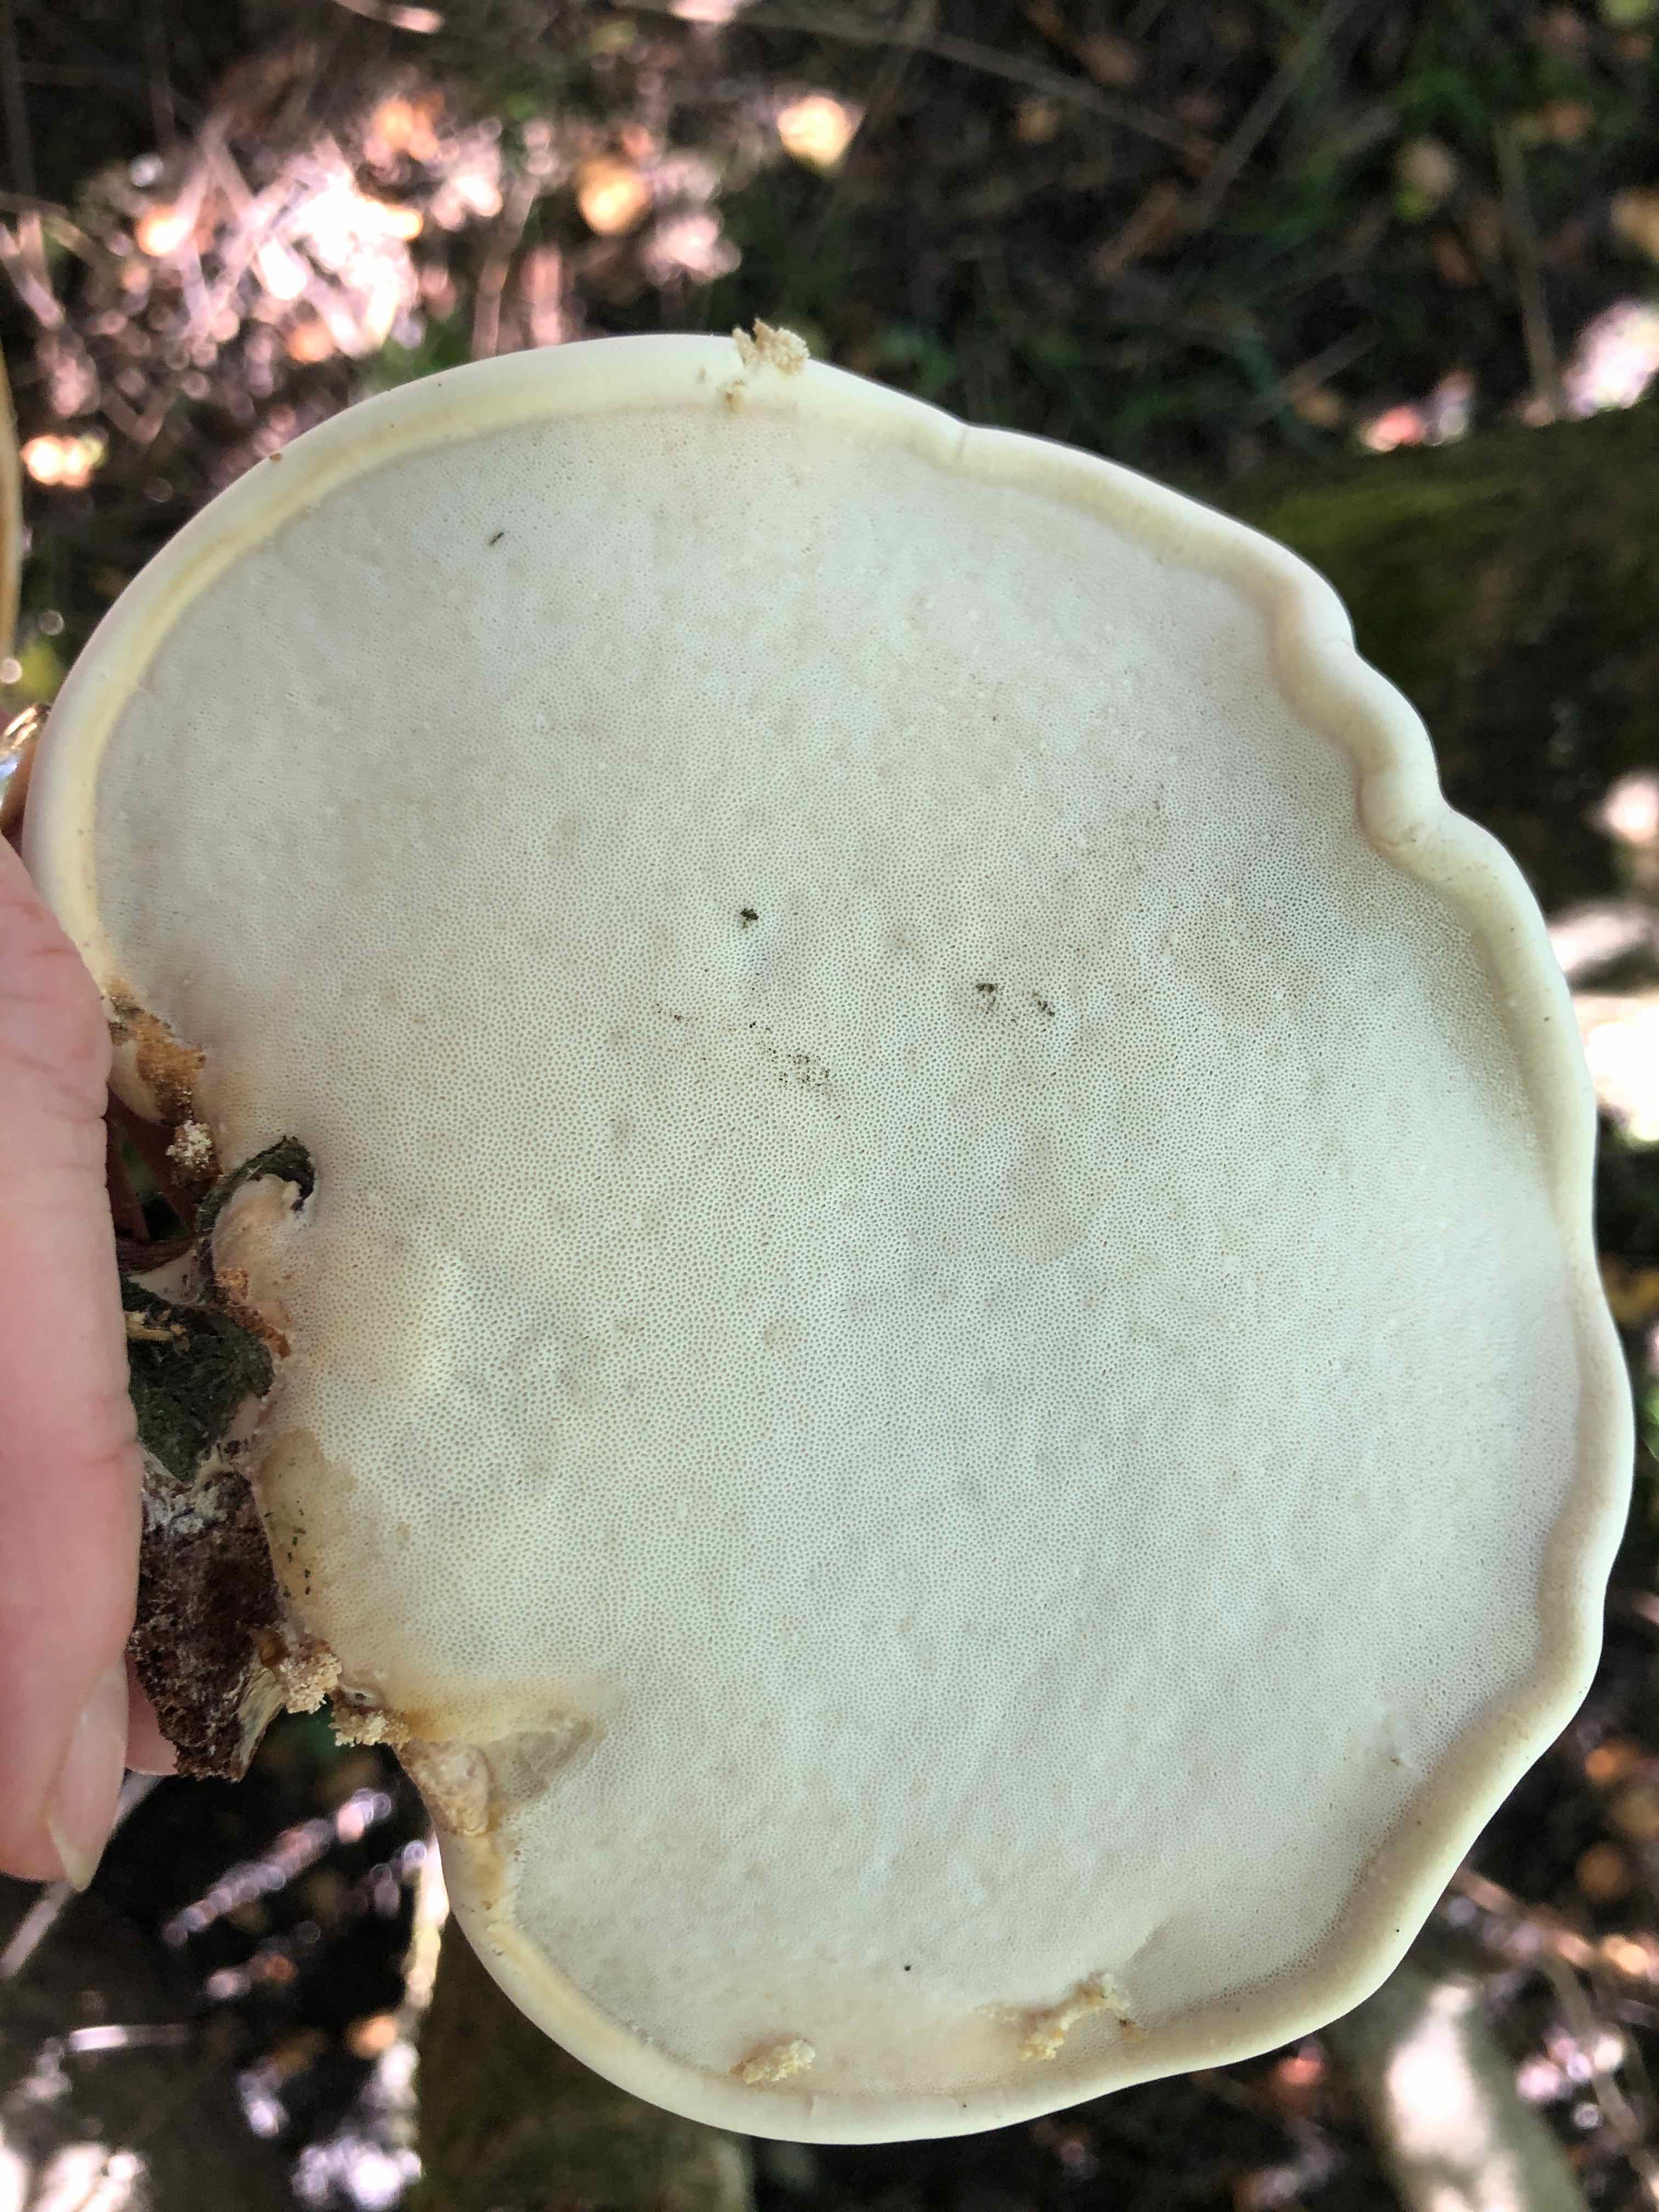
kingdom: Fungi
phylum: Basidiomycota
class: Agaricomycetes
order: Polyporales
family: Fomitopsidaceae
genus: Fomitopsis
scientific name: Fomitopsis betulina
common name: birkeporesvamp
